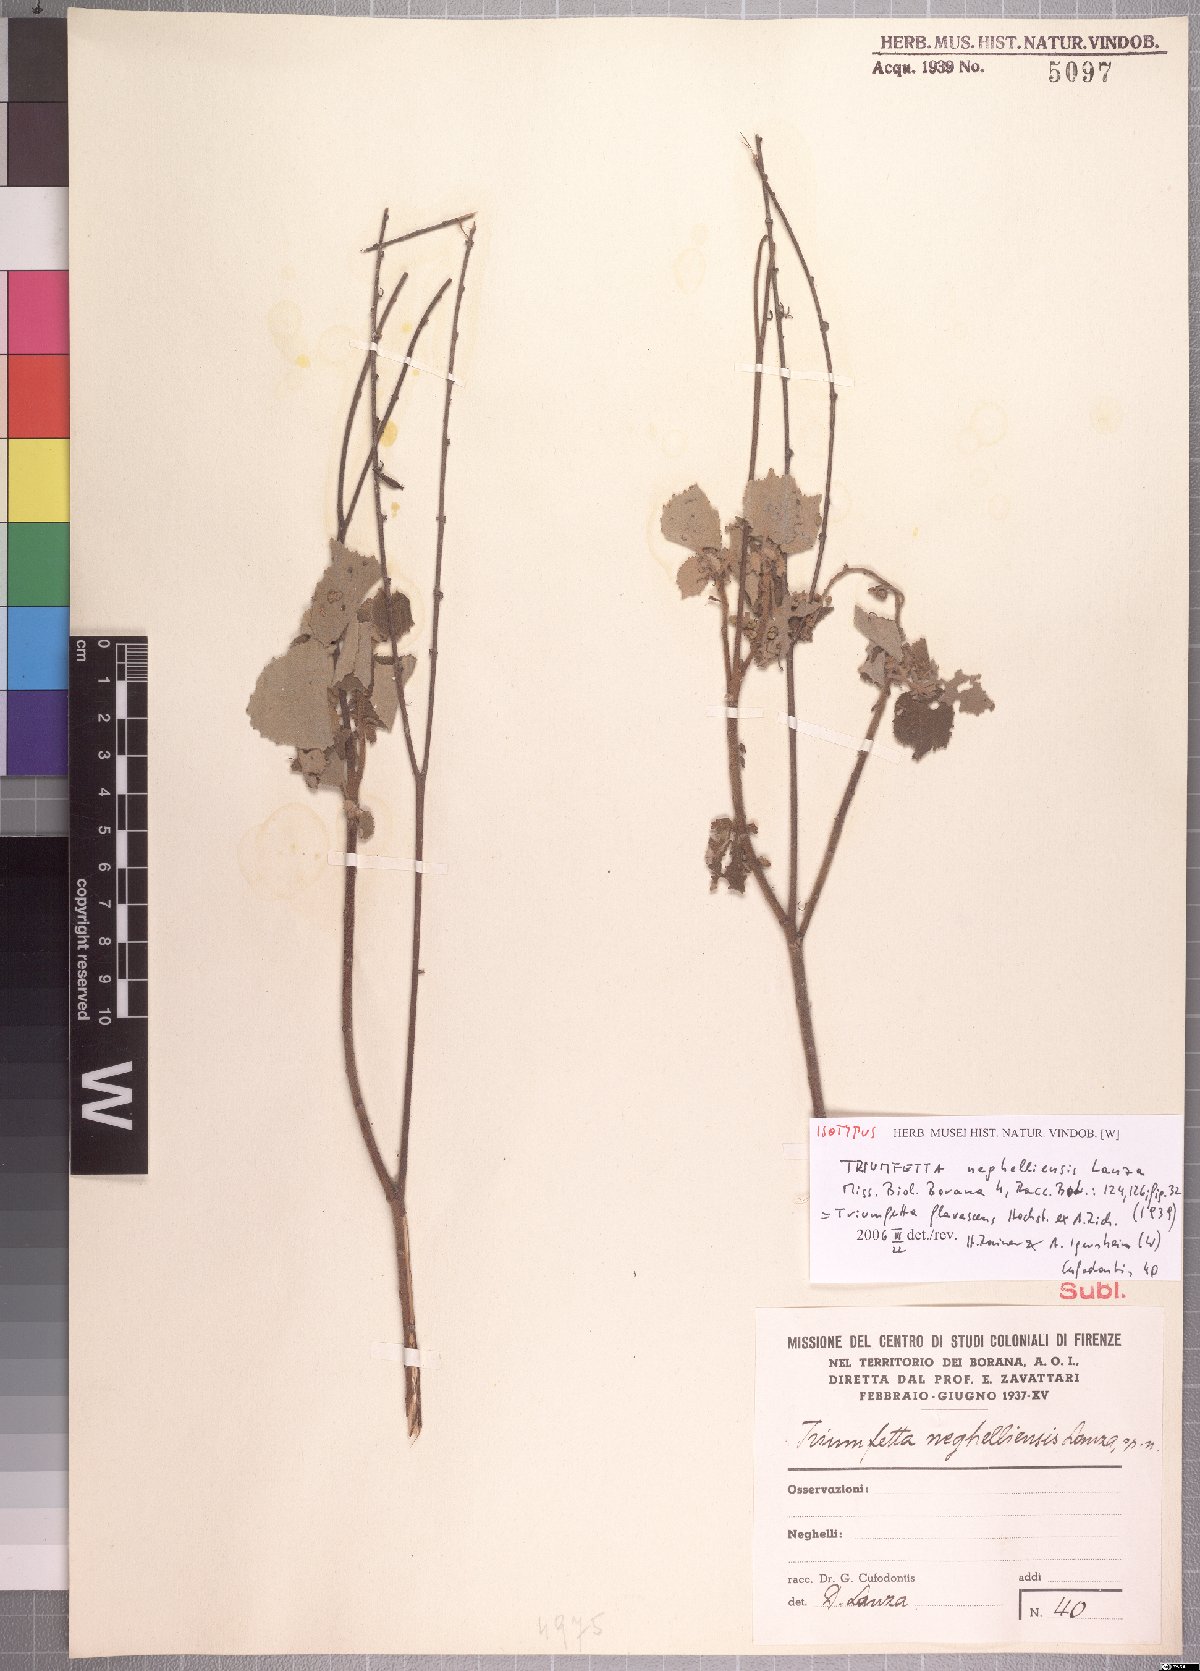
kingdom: Plantae
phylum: Tracheophyta
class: Magnoliopsida
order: Malvales
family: Malvaceae
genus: Triumfetta
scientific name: Triumfetta flavescens
